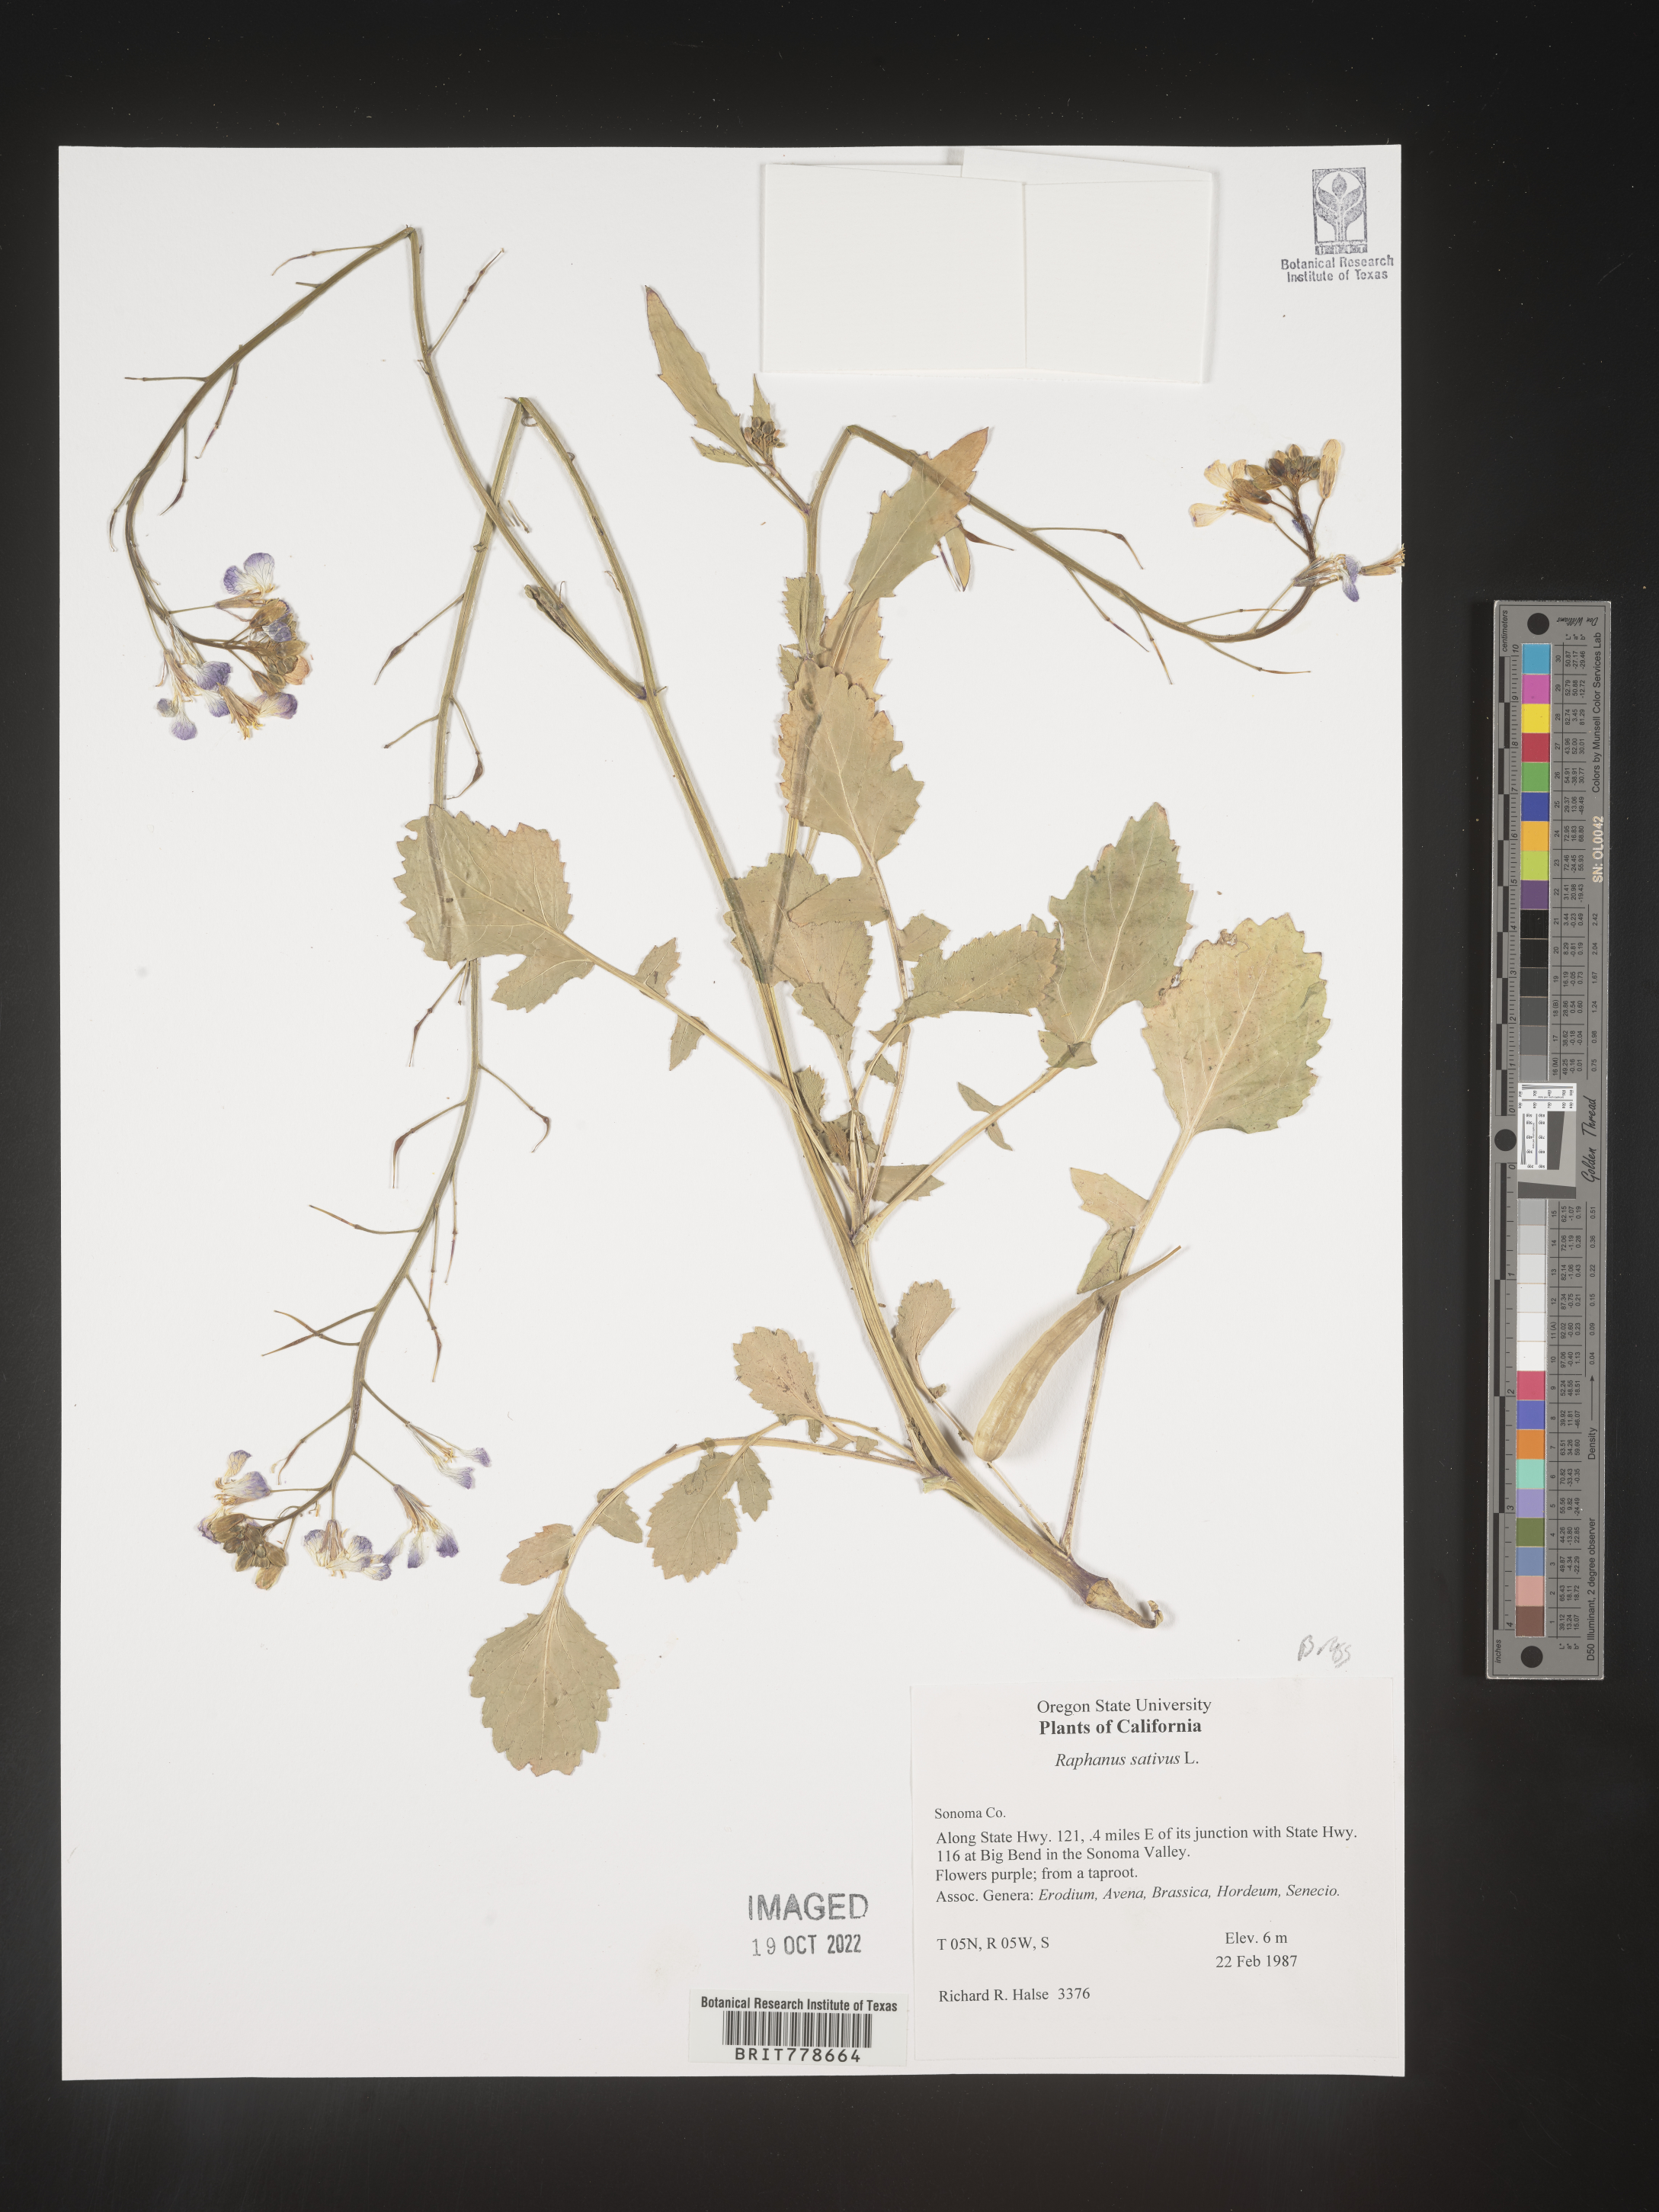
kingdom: Plantae
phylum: Tracheophyta
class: Magnoliopsida
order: Brassicales
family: Brassicaceae
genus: Raphanus
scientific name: Raphanus sativus
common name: Cultivated radish
